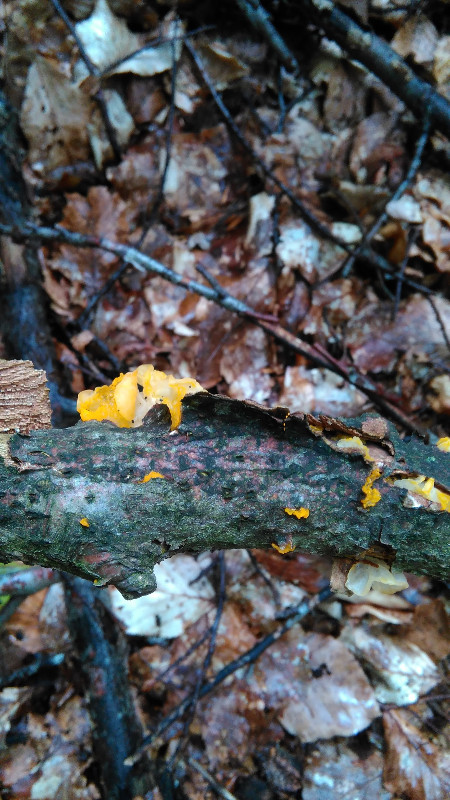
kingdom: Fungi
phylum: Basidiomycota
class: Tremellomycetes
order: Tremellales
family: Tremellaceae
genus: Tremella
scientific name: Tremella mesenterica
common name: gul bævresvamp
